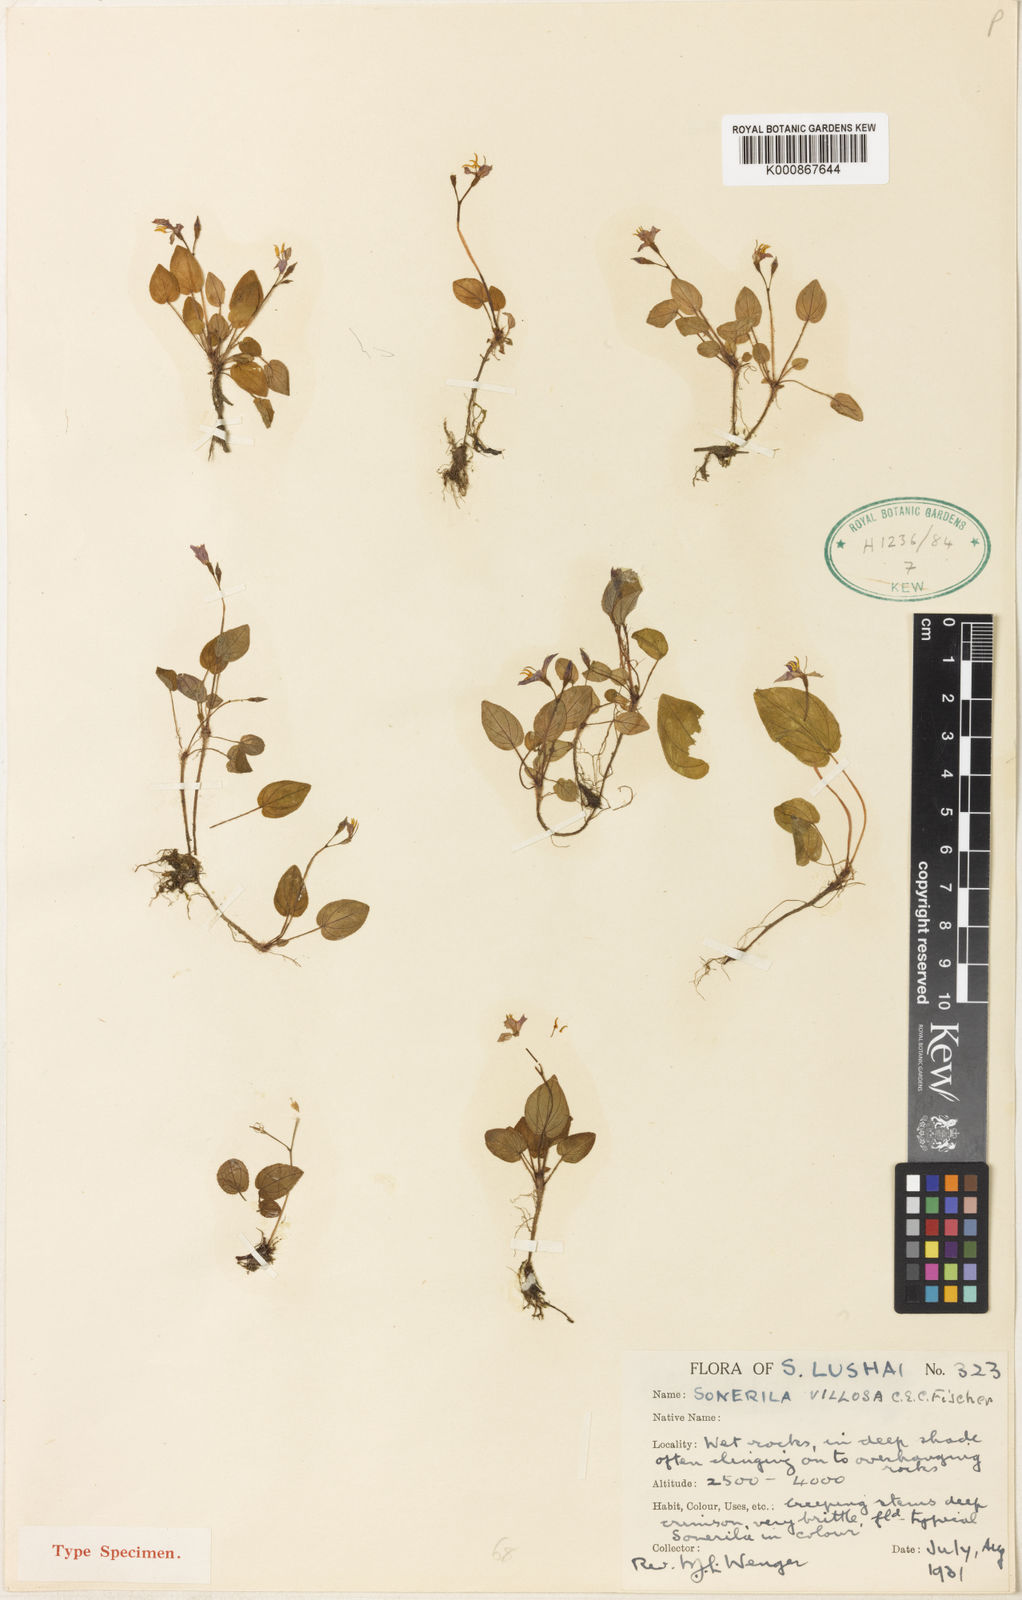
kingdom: Plantae
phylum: Tracheophyta
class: Magnoliopsida
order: Myrtales
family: Melastomataceae
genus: Sonerila
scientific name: Sonerila villosa
